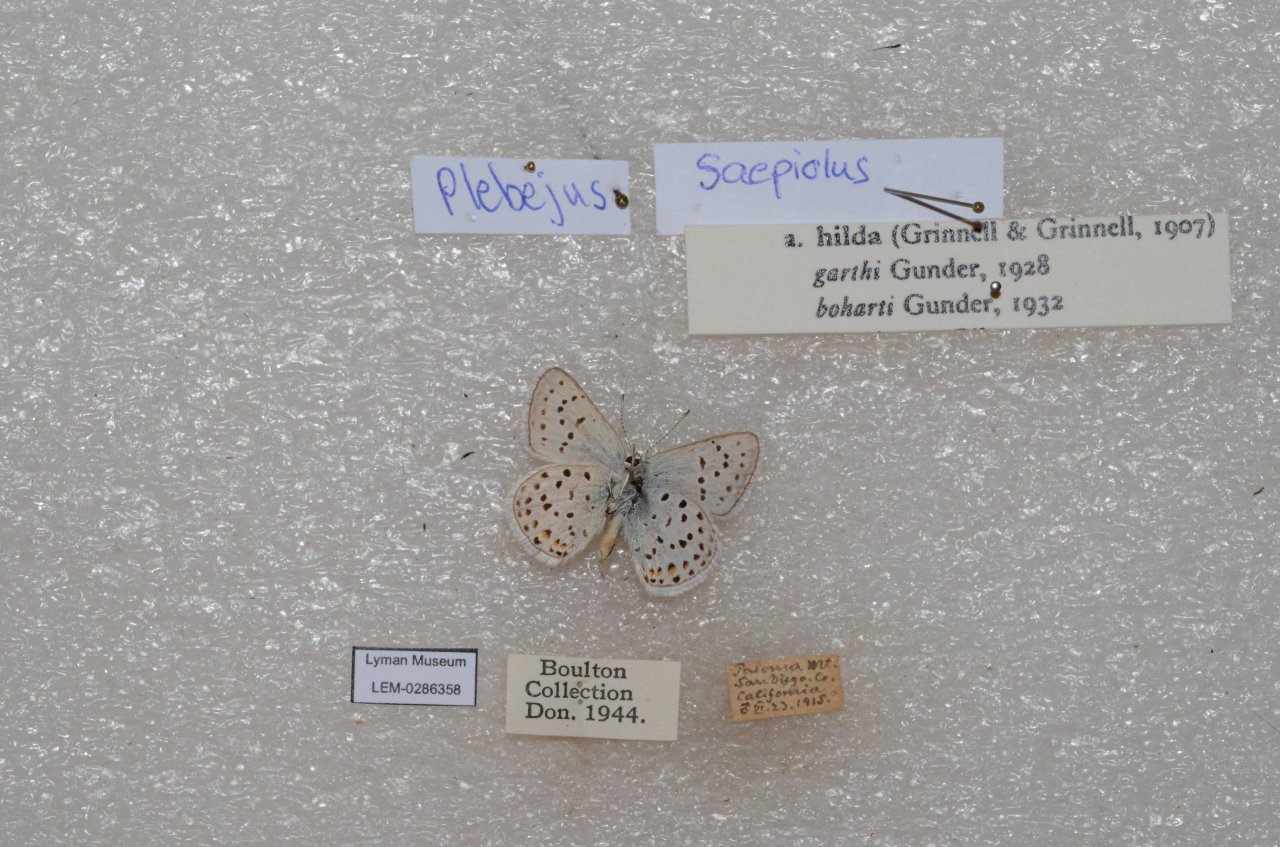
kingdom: Animalia
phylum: Arthropoda
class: Insecta
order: Lepidoptera
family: Lycaenidae
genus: Plebejus
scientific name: Plebejus saepiolus
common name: Greenish Blue
